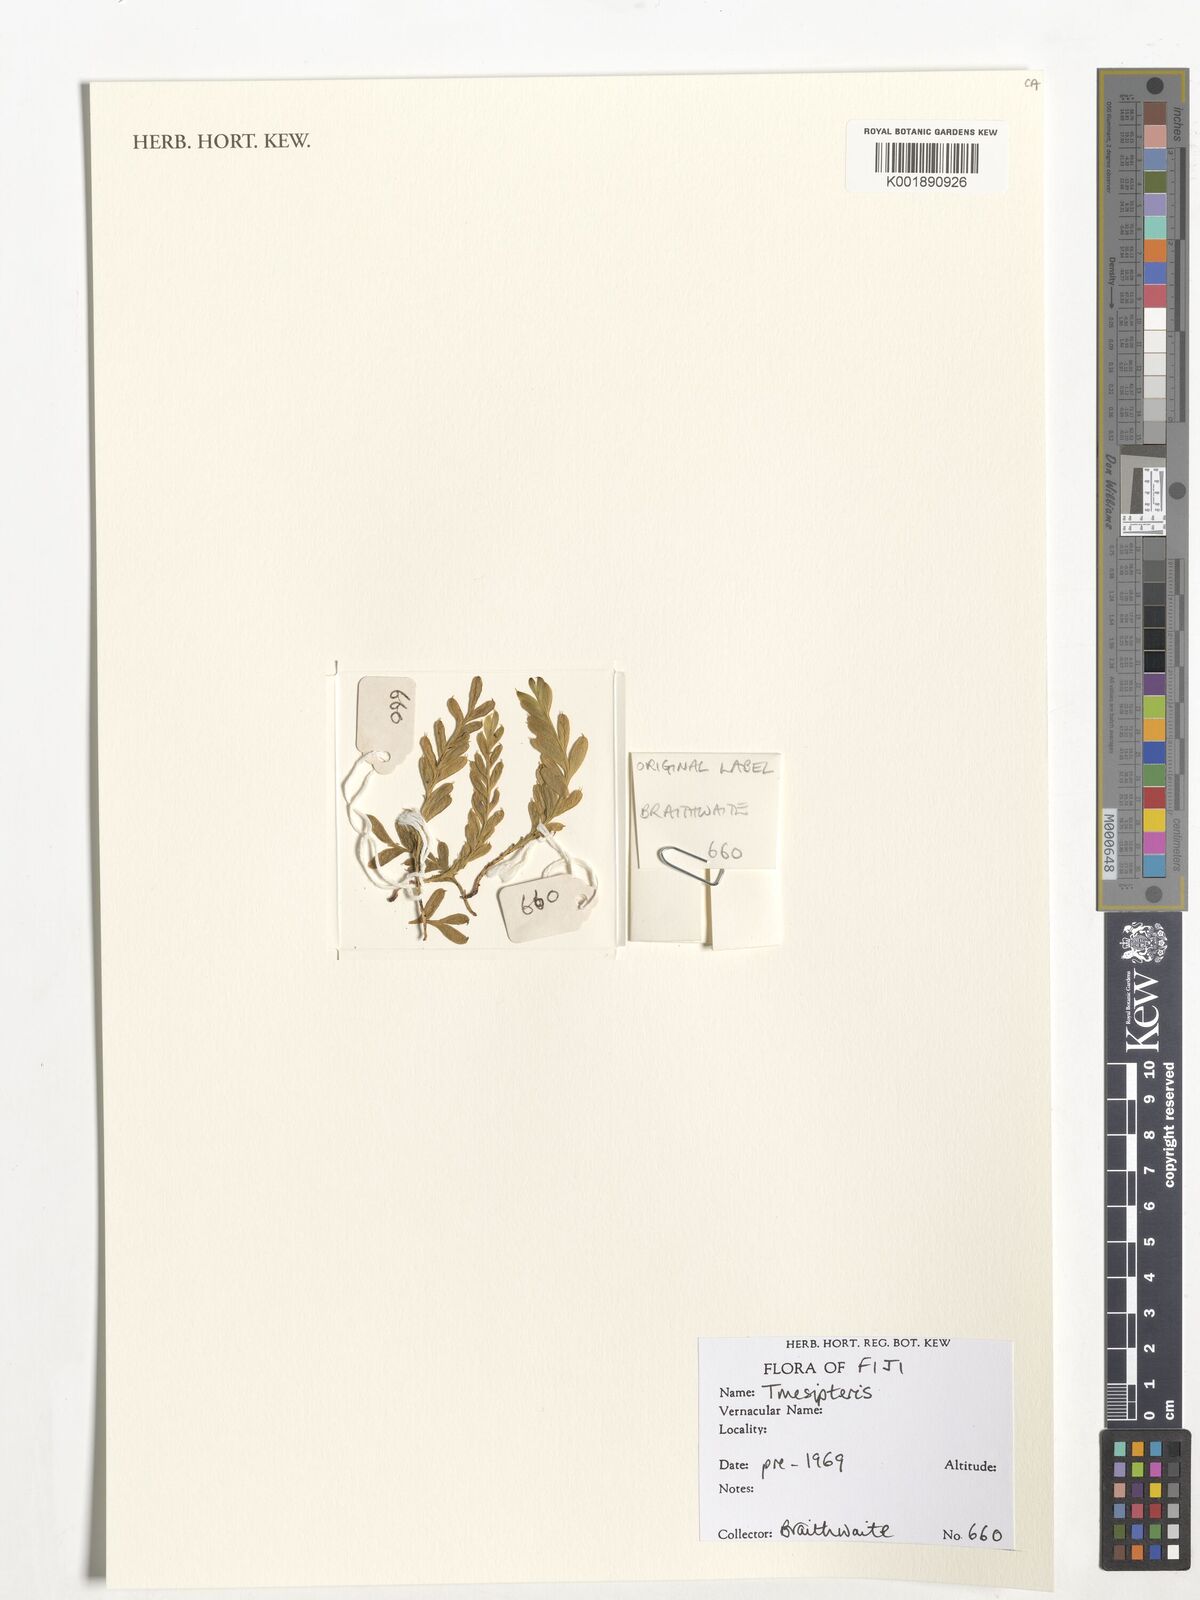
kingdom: Plantae
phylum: Tracheophyta
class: Polypodiopsida
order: Psilotales
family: Psilotaceae
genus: Tmesipteris
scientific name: Tmesipteris
